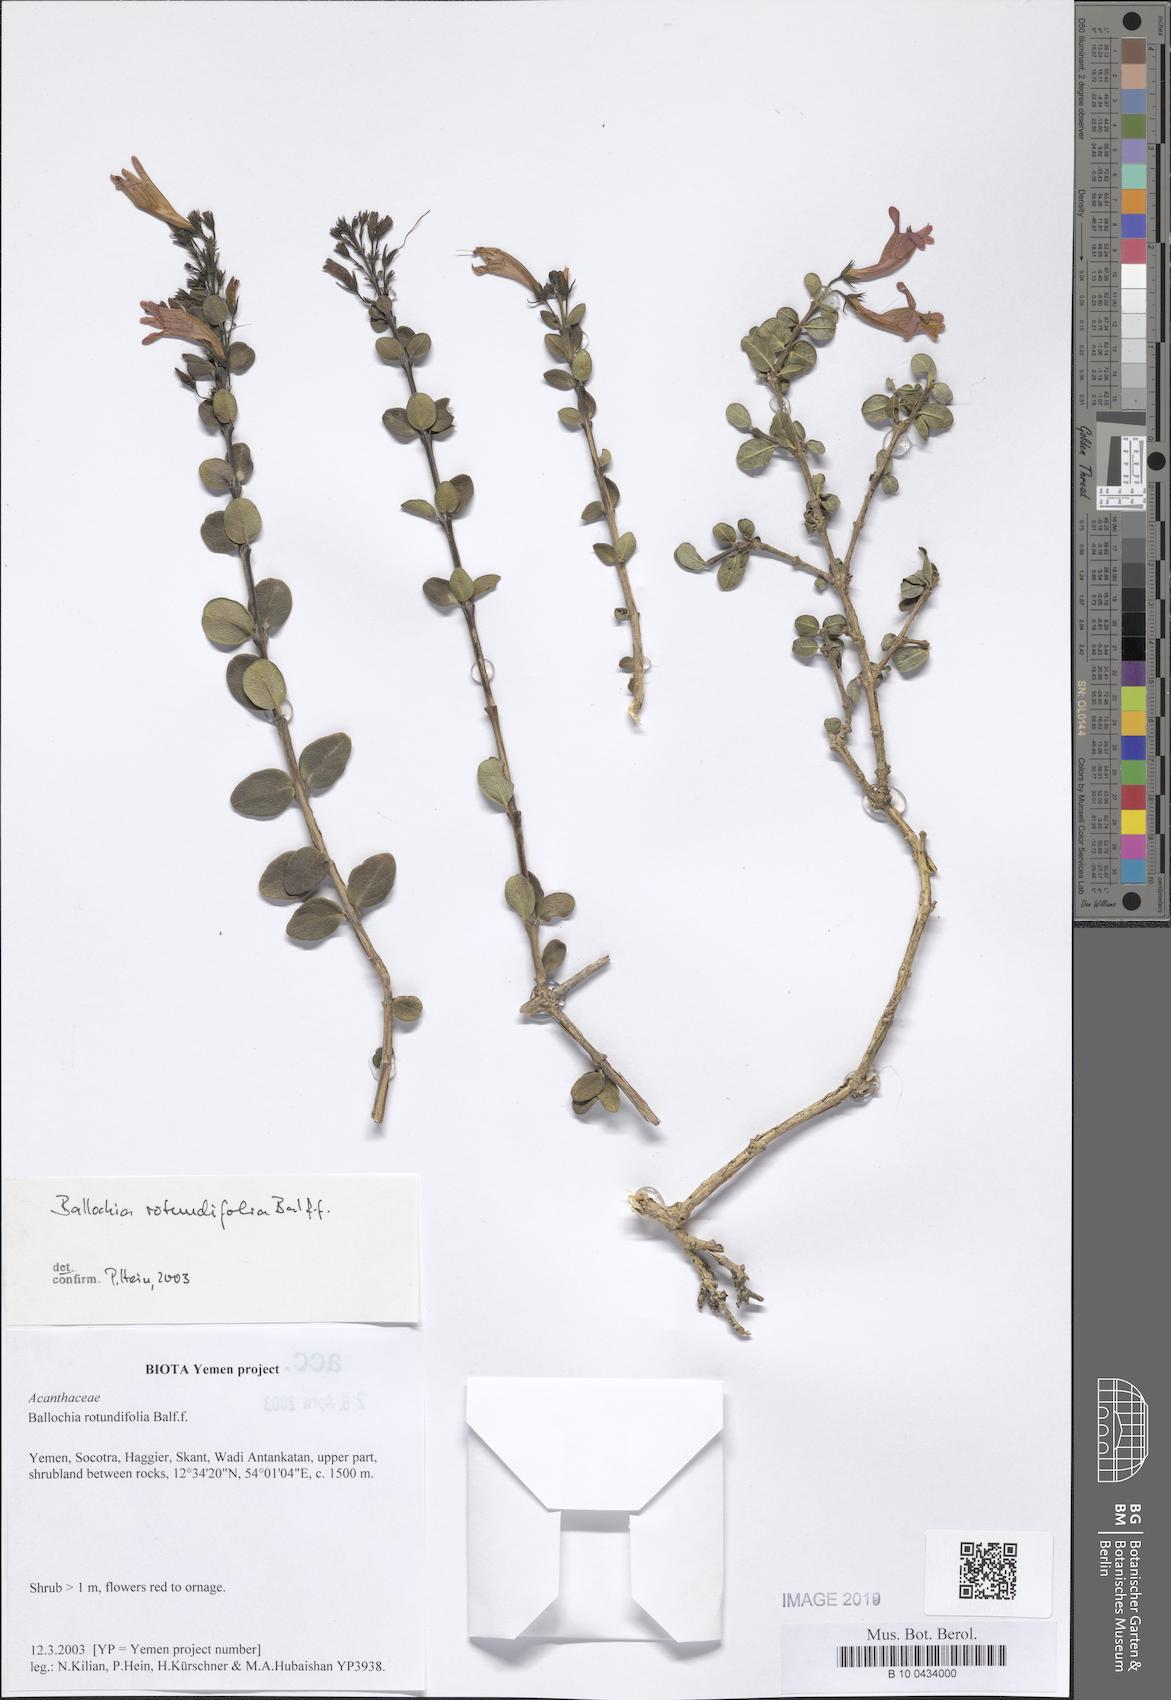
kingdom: Plantae
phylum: Tracheophyta
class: Magnoliopsida
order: Lamiales
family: Acanthaceae
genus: Ballochia
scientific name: Ballochia rotundifolia
